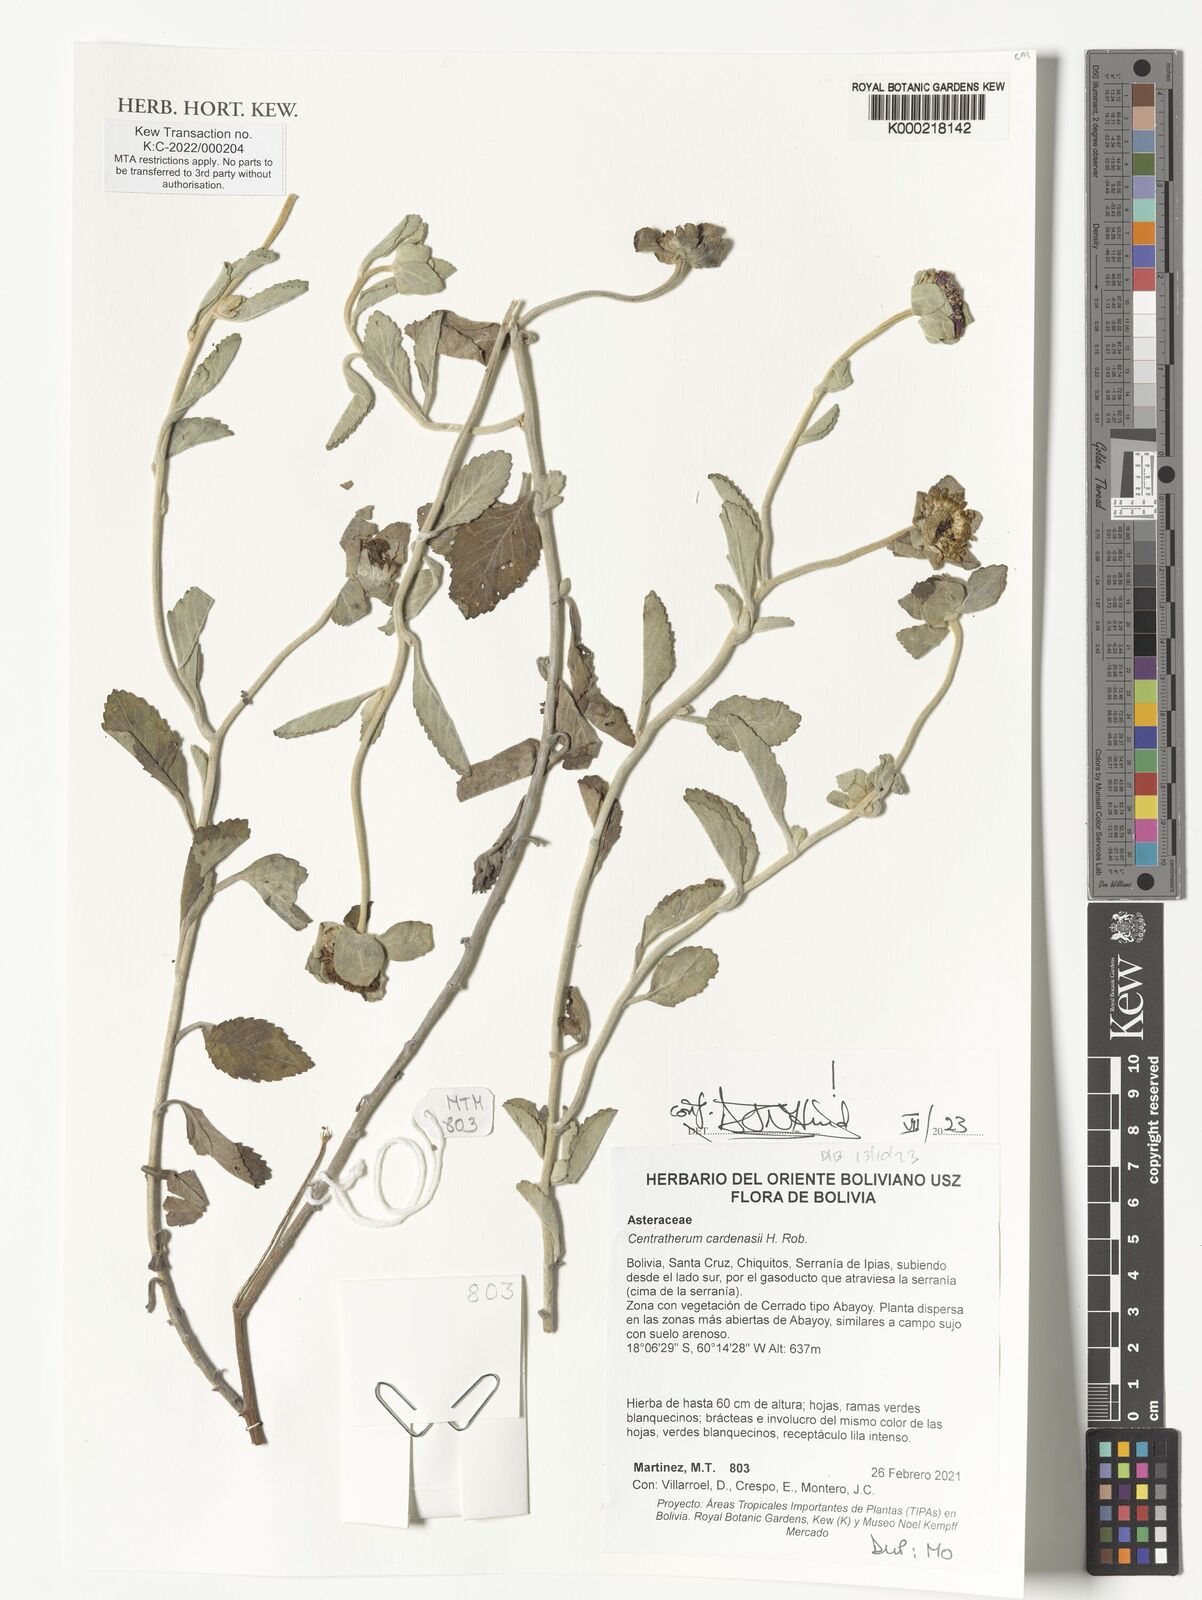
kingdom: Plantae
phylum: Tracheophyta
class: Magnoliopsida
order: Asterales
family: Asteraceae
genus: Centratherum
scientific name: Centratherum cardenasii
